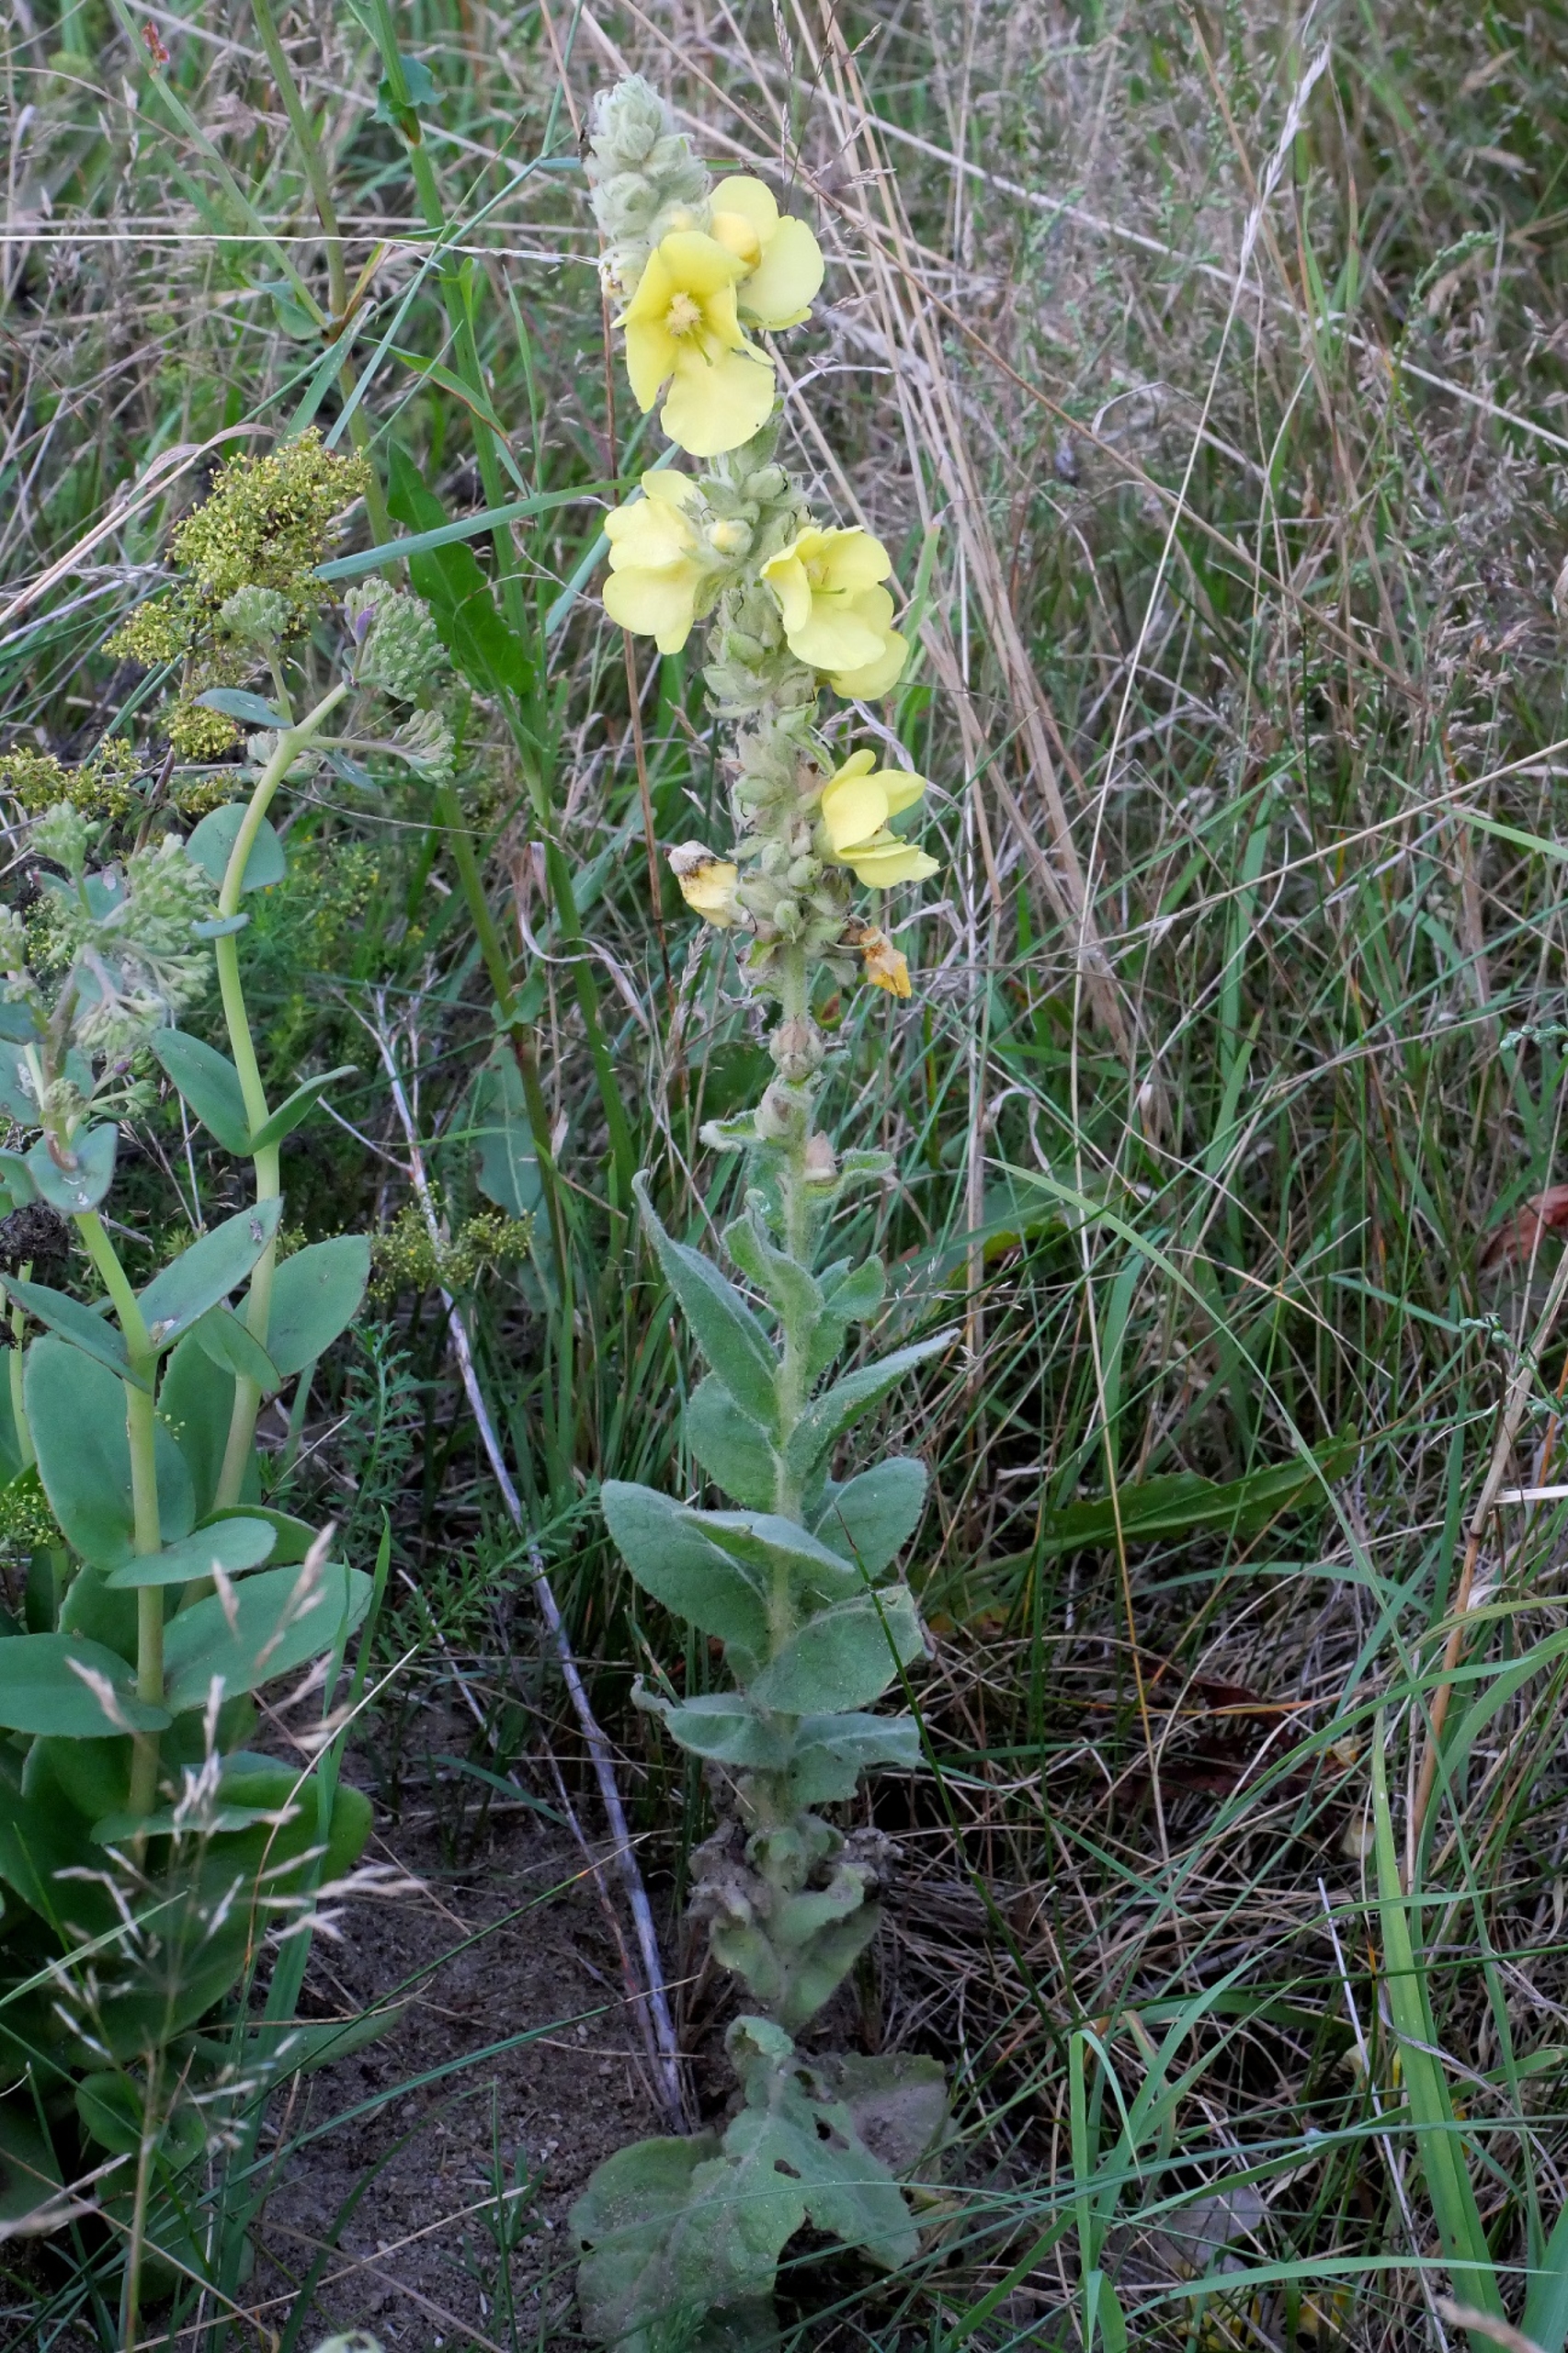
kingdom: Plantae
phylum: Tracheophyta
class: Magnoliopsida
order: Lamiales
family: Scrophulariaceae
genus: Verbascum
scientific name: Verbascum phlomoides
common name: Hjertebladet kongelys
